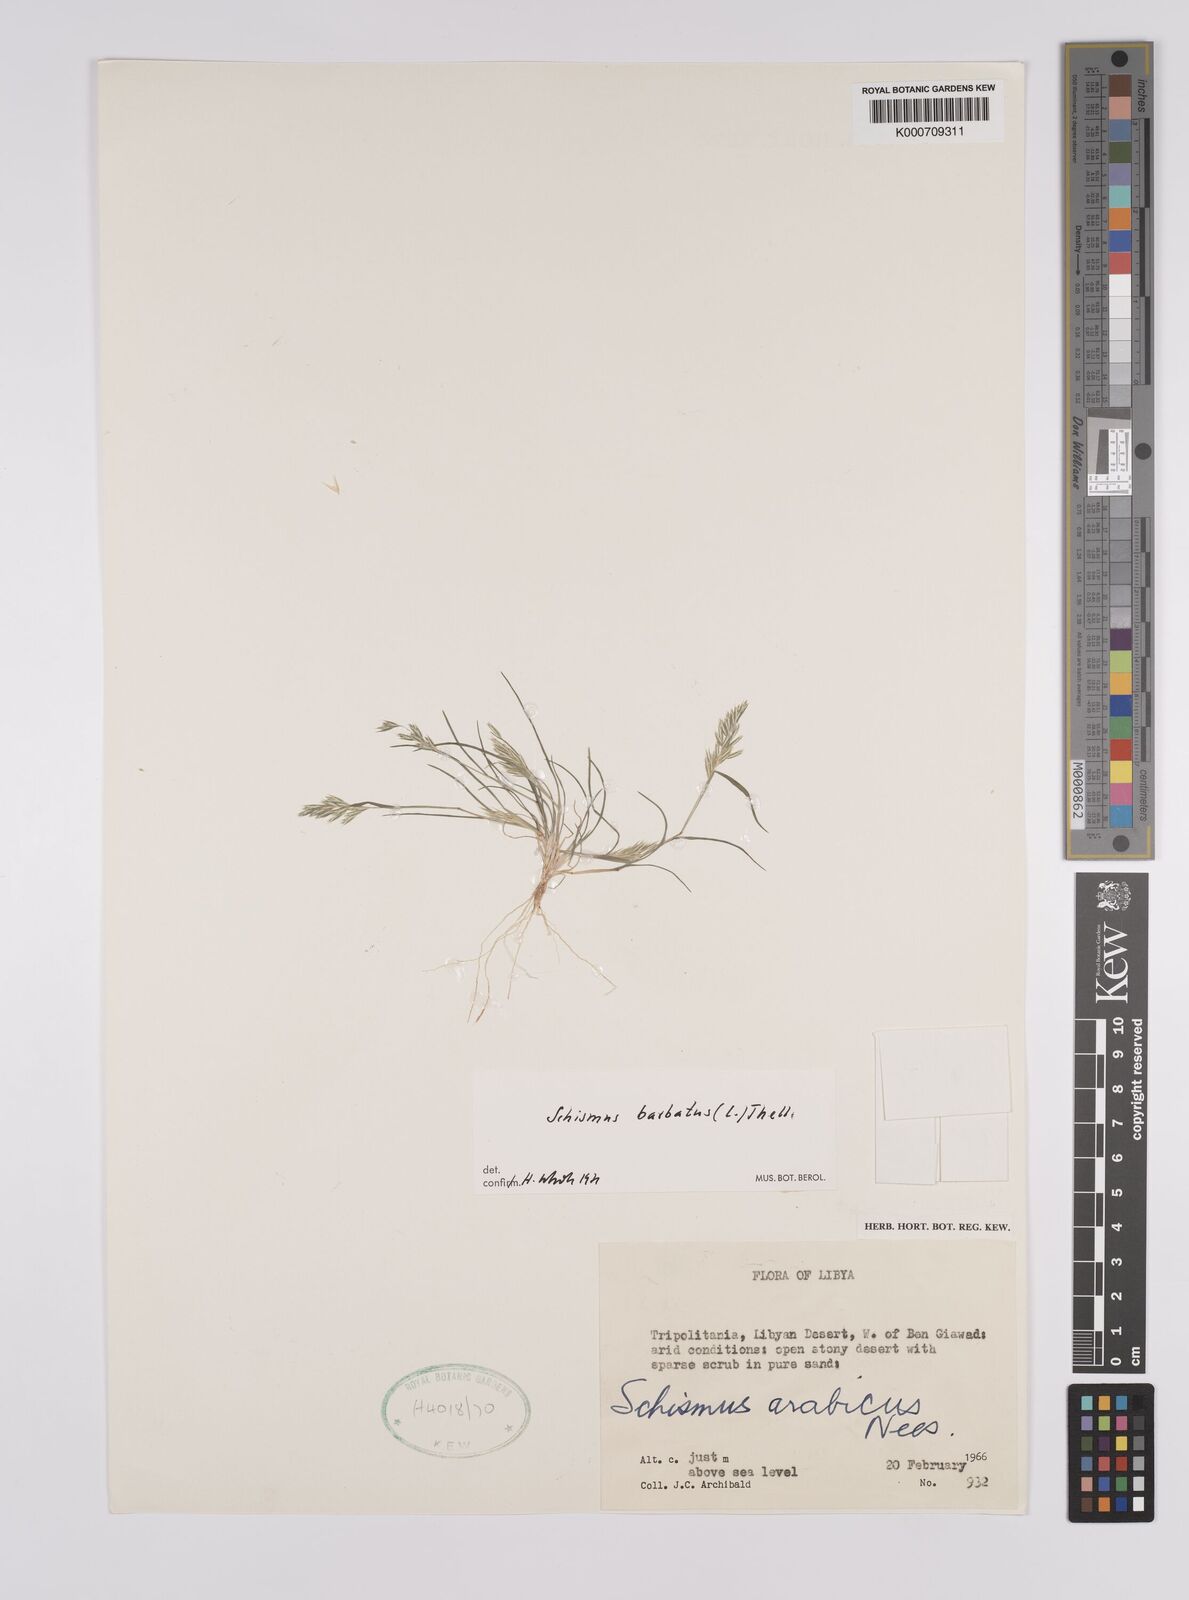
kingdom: Plantae
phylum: Tracheophyta
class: Liliopsida
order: Poales
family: Poaceae
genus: Schismus
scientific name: Schismus barbatus
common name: Kelch-grass
